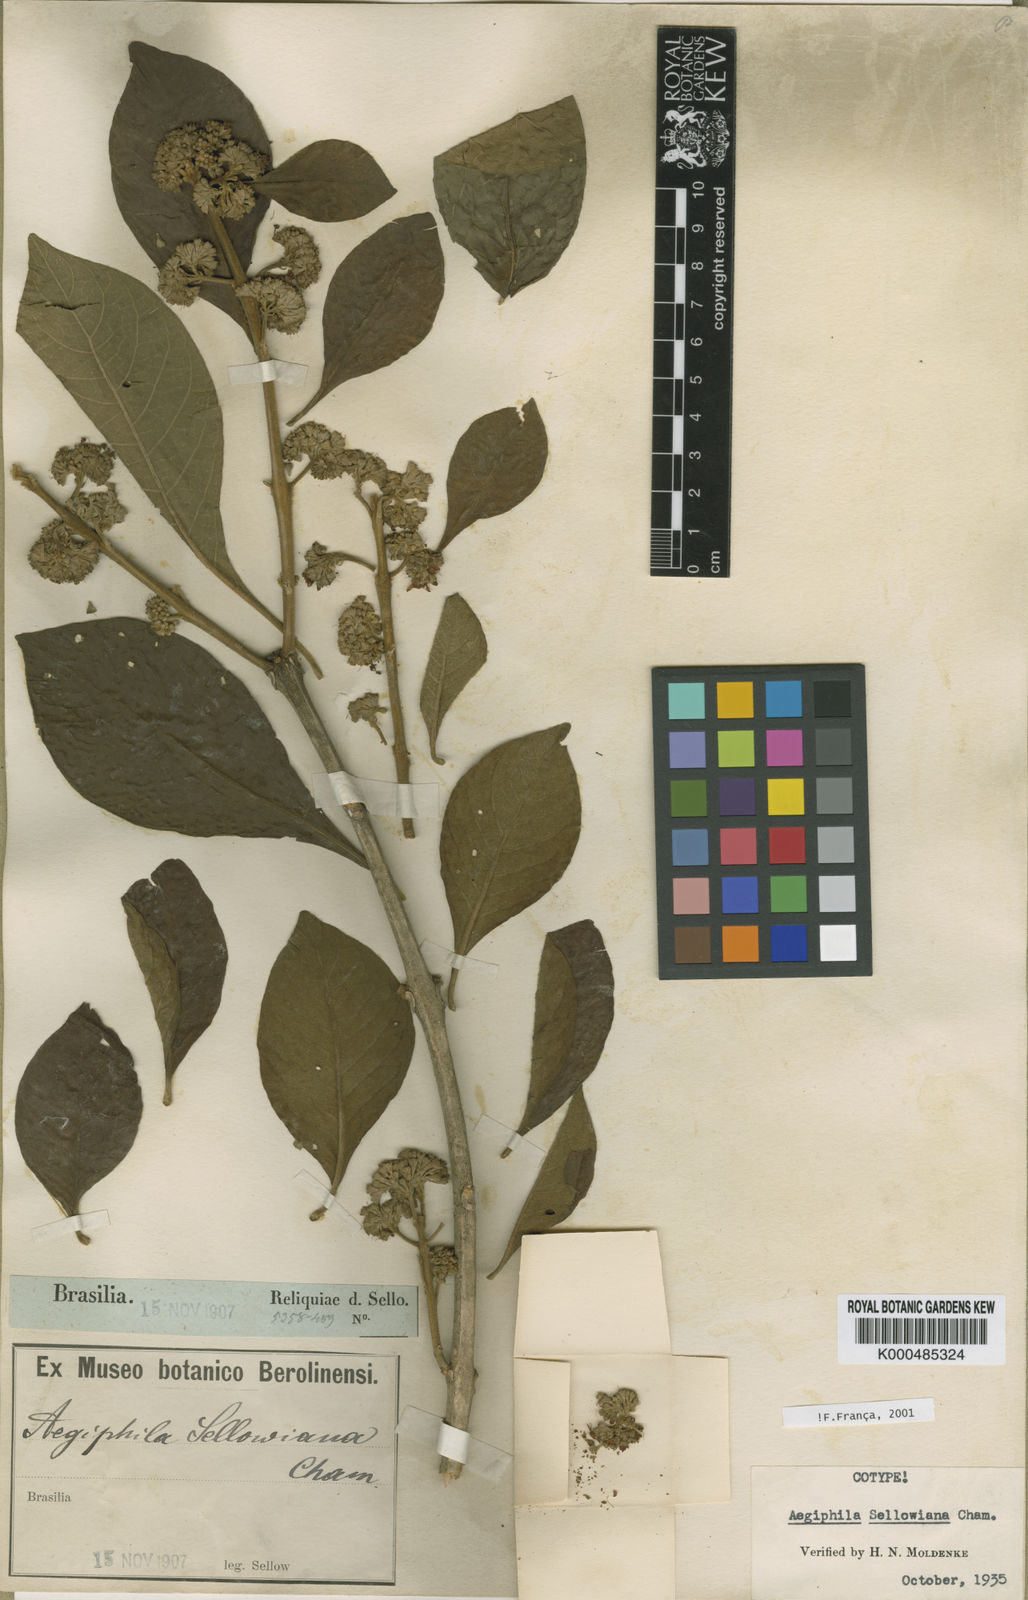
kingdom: Plantae
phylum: Tracheophyta
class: Magnoliopsida
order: Lamiales
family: Lamiaceae
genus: Aegiphila
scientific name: Aegiphila verticillata
